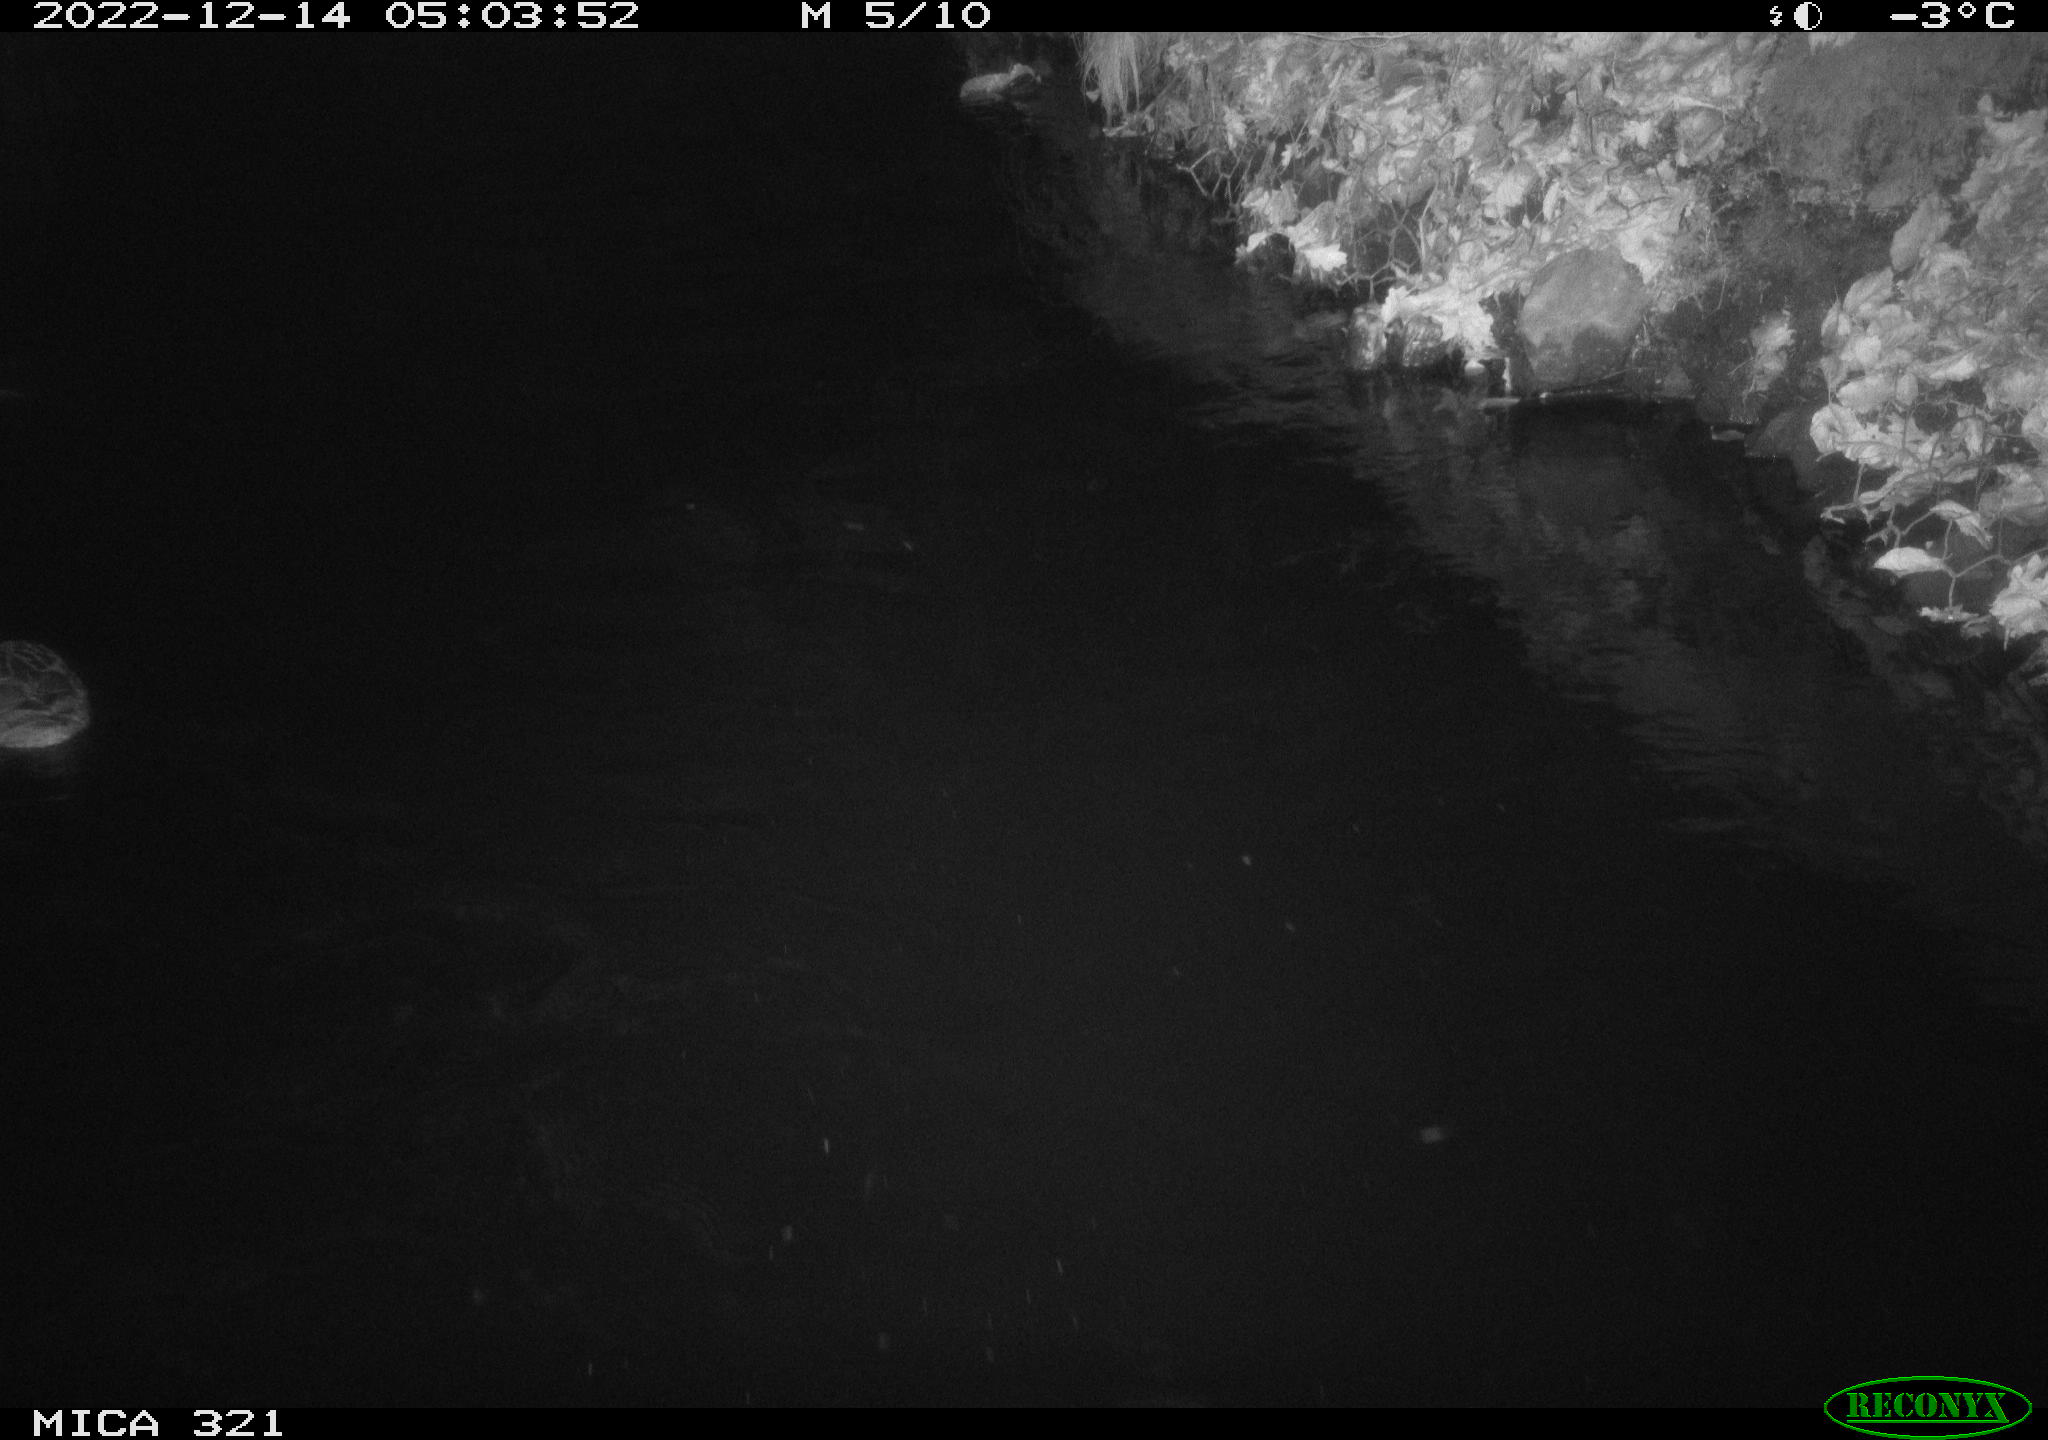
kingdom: Animalia
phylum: Chordata
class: Aves
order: Anseriformes
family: Anatidae
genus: Anas
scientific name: Anas
